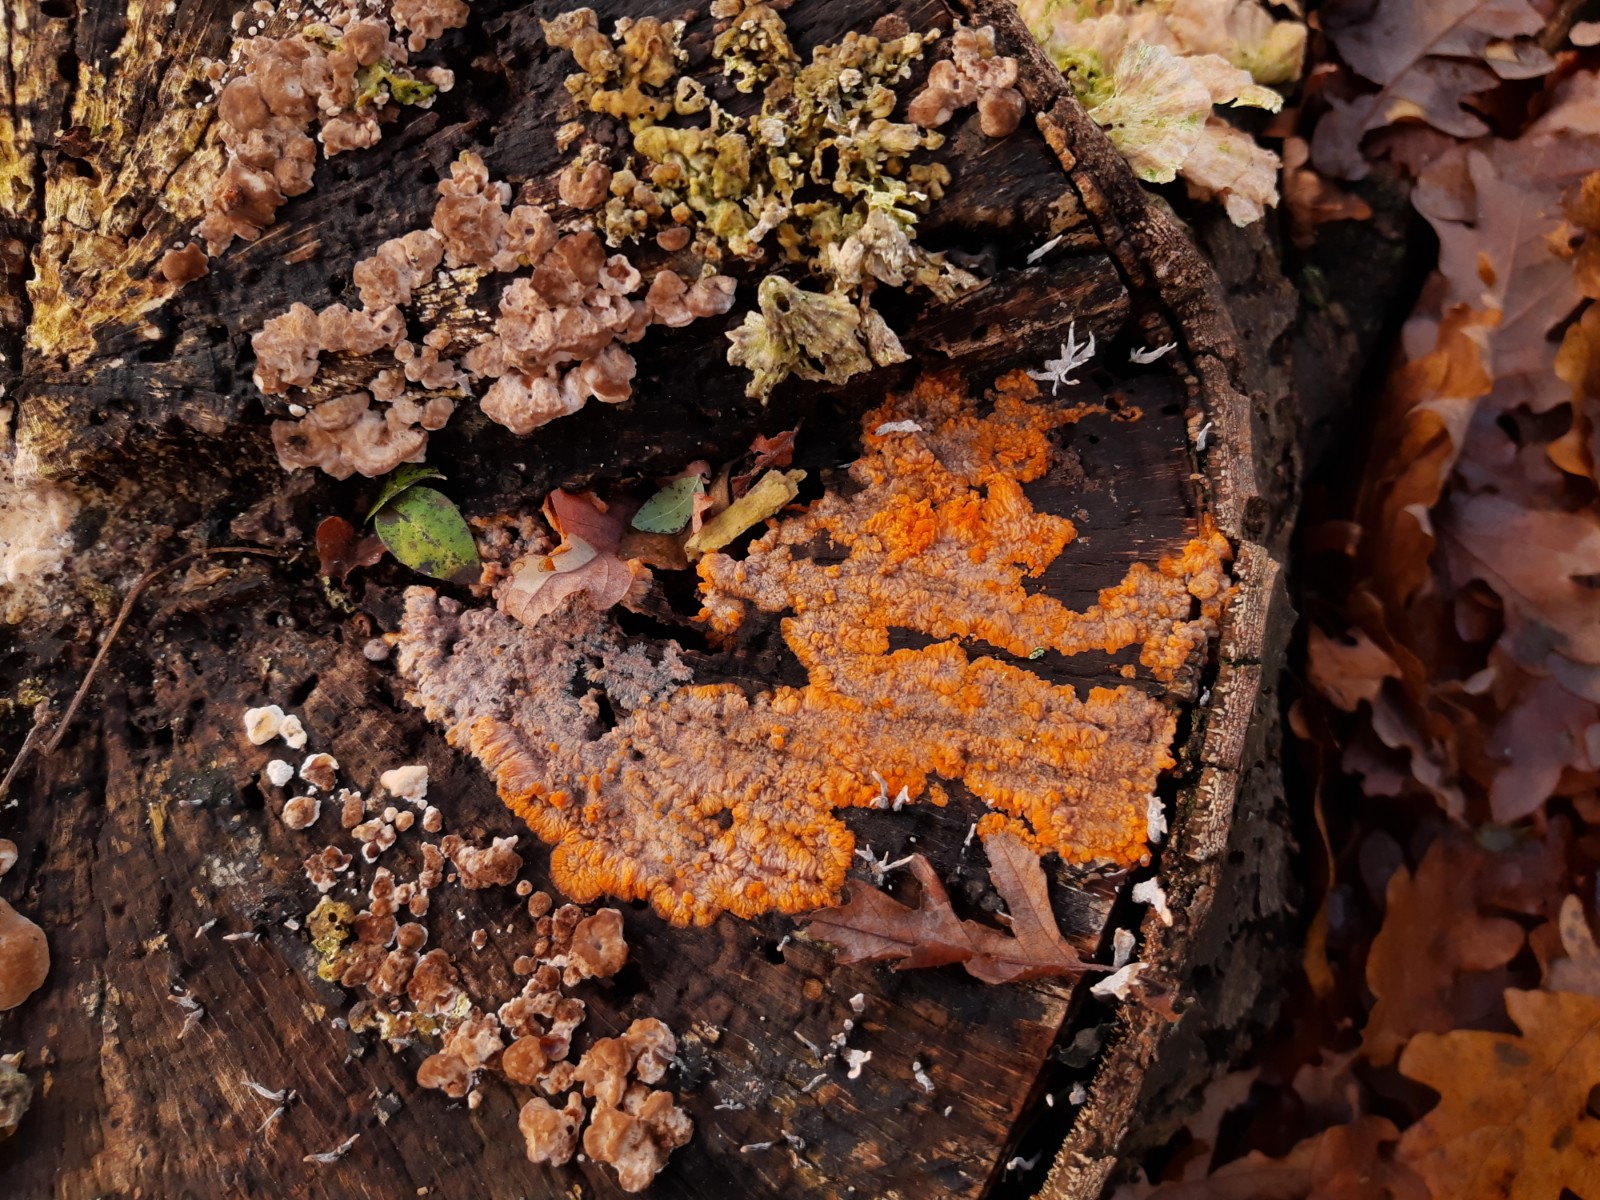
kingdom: Fungi
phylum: Basidiomycota
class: Agaricomycetes
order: Polyporales
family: Meruliaceae
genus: Phlebia
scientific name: Phlebia radiata
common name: stråle-åresvamp
